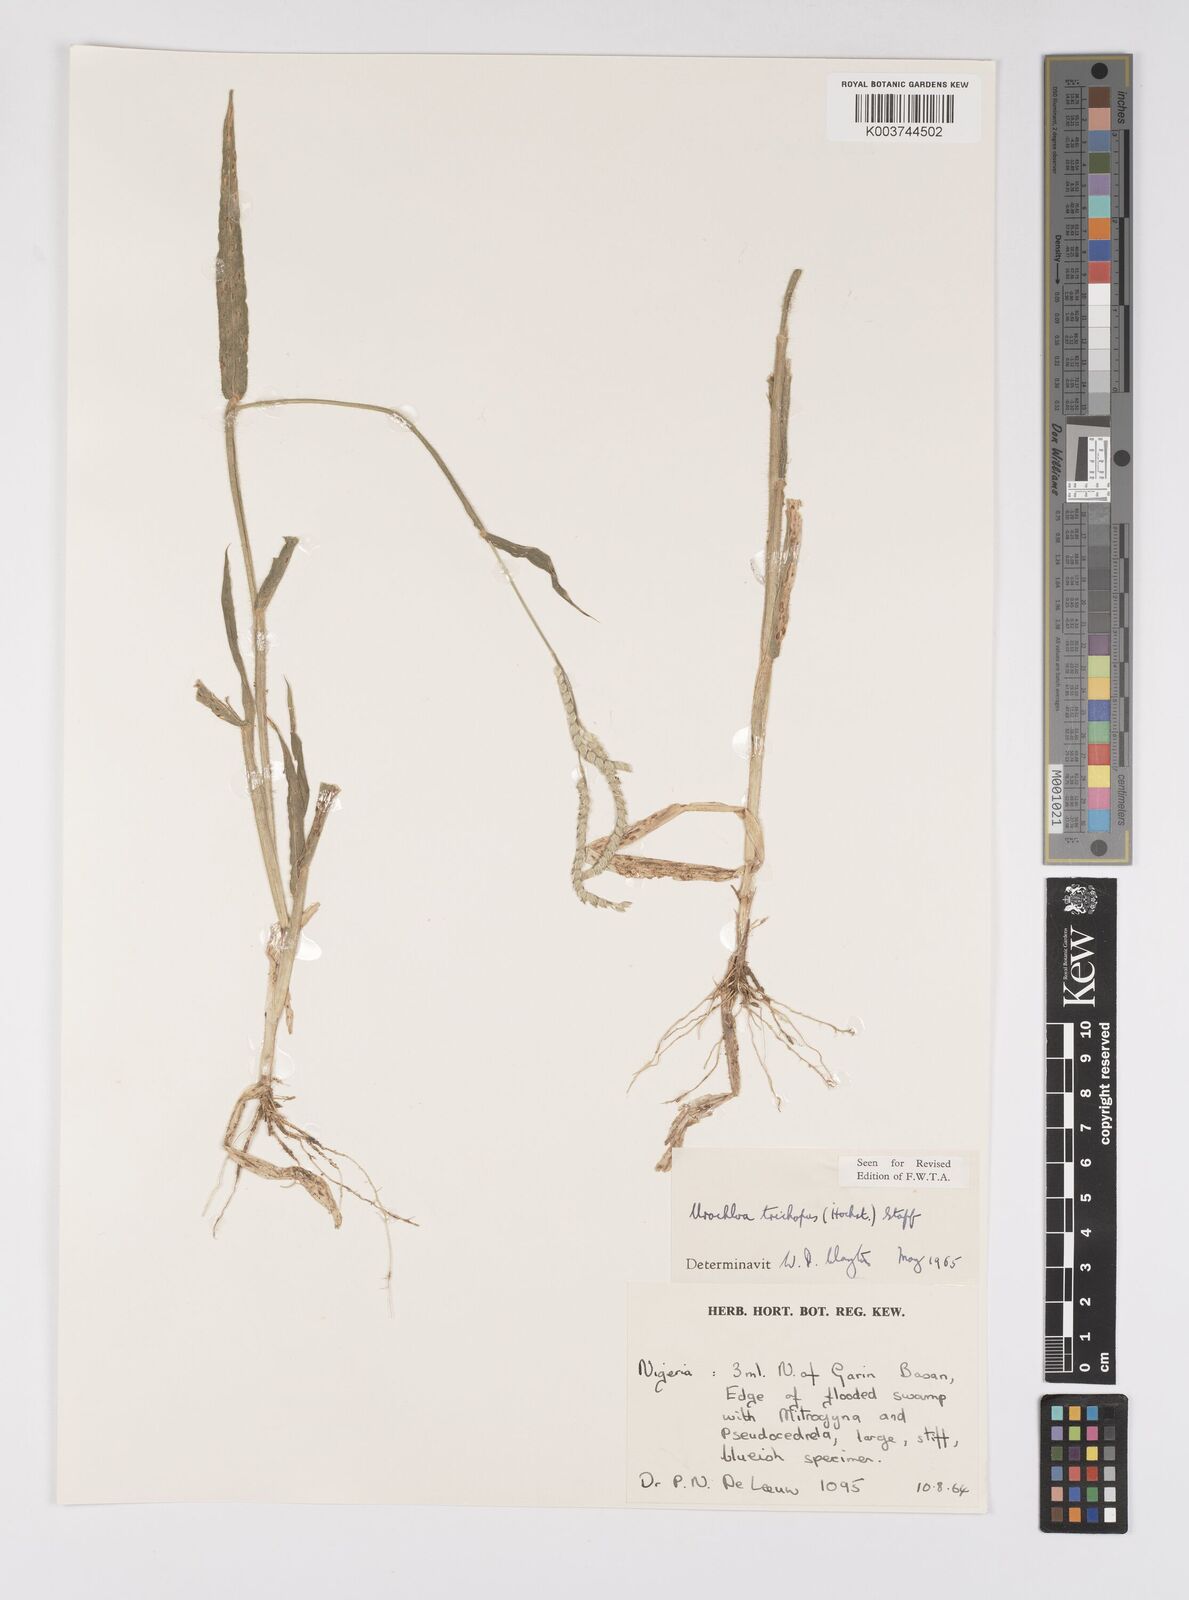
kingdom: Plantae
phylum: Tracheophyta
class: Liliopsida
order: Poales
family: Poaceae
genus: Urochloa
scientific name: Urochloa trichopus
